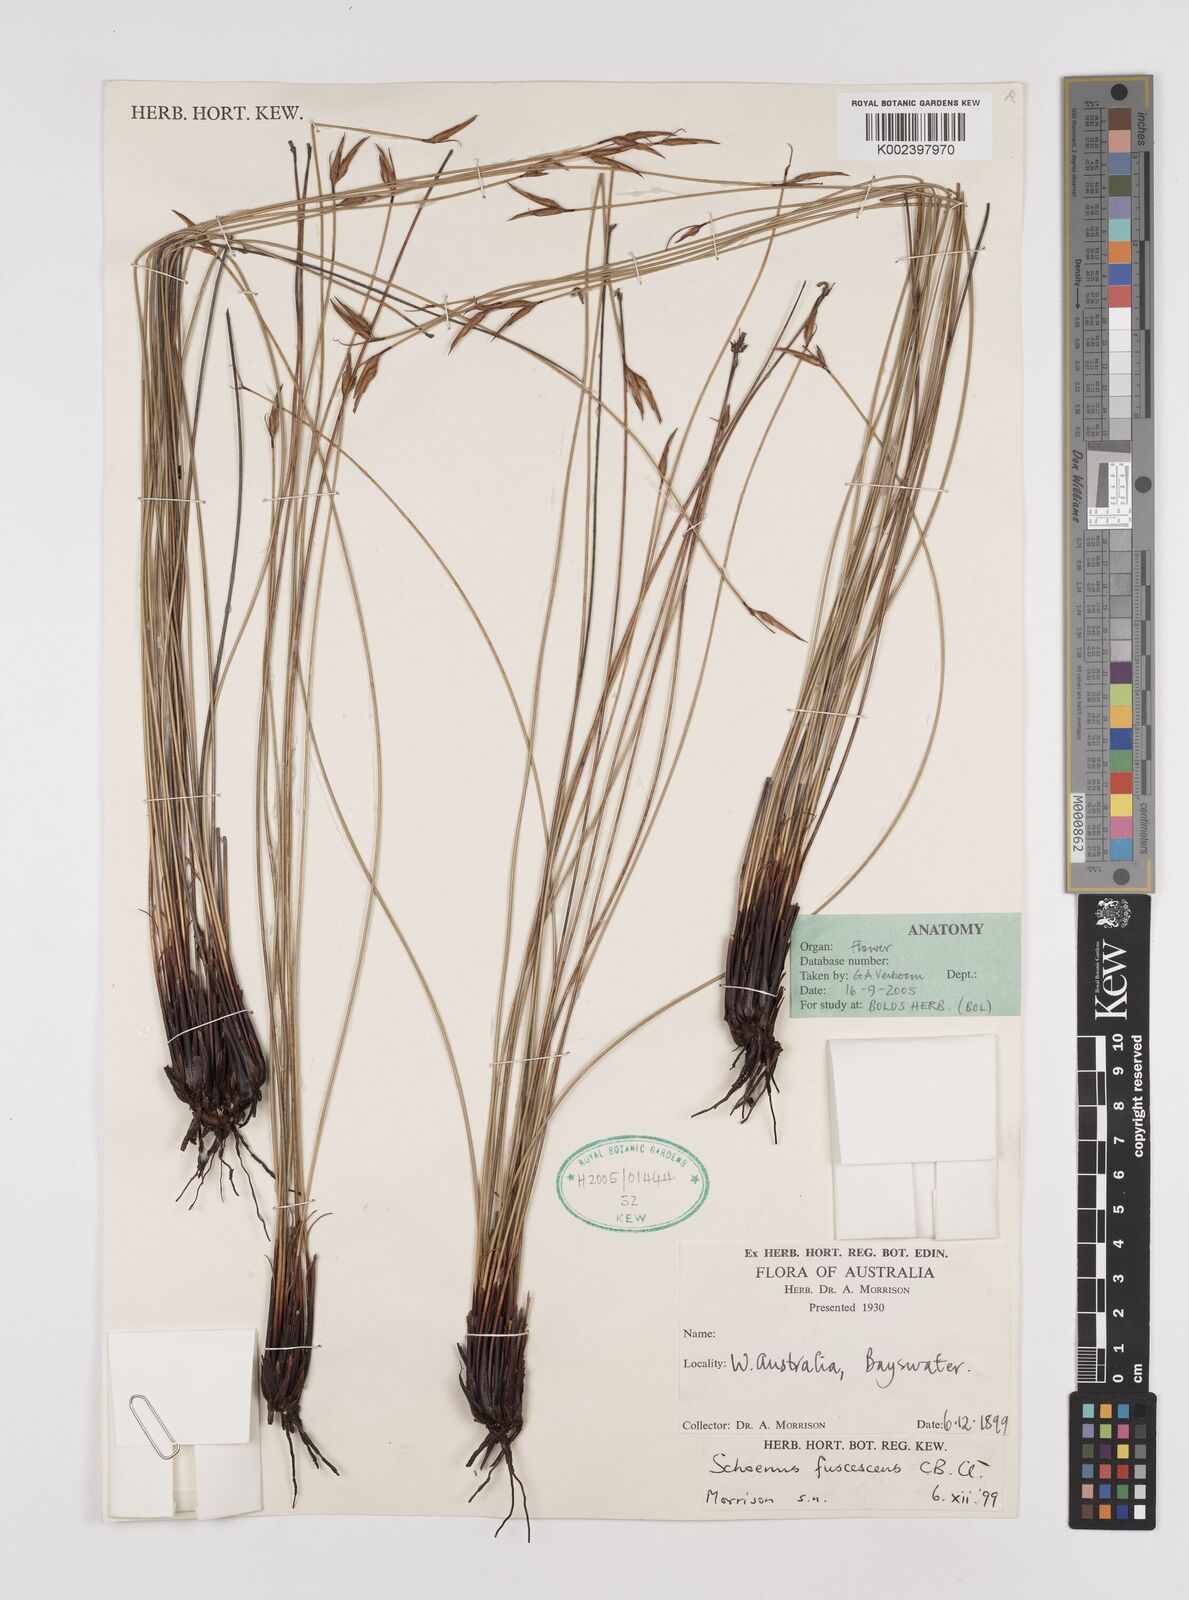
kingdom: Plantae
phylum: Tracheophyta
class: Liliopsida
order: Poales
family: Cyperaceae
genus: Schoenus
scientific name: Schoenus brevisetis
